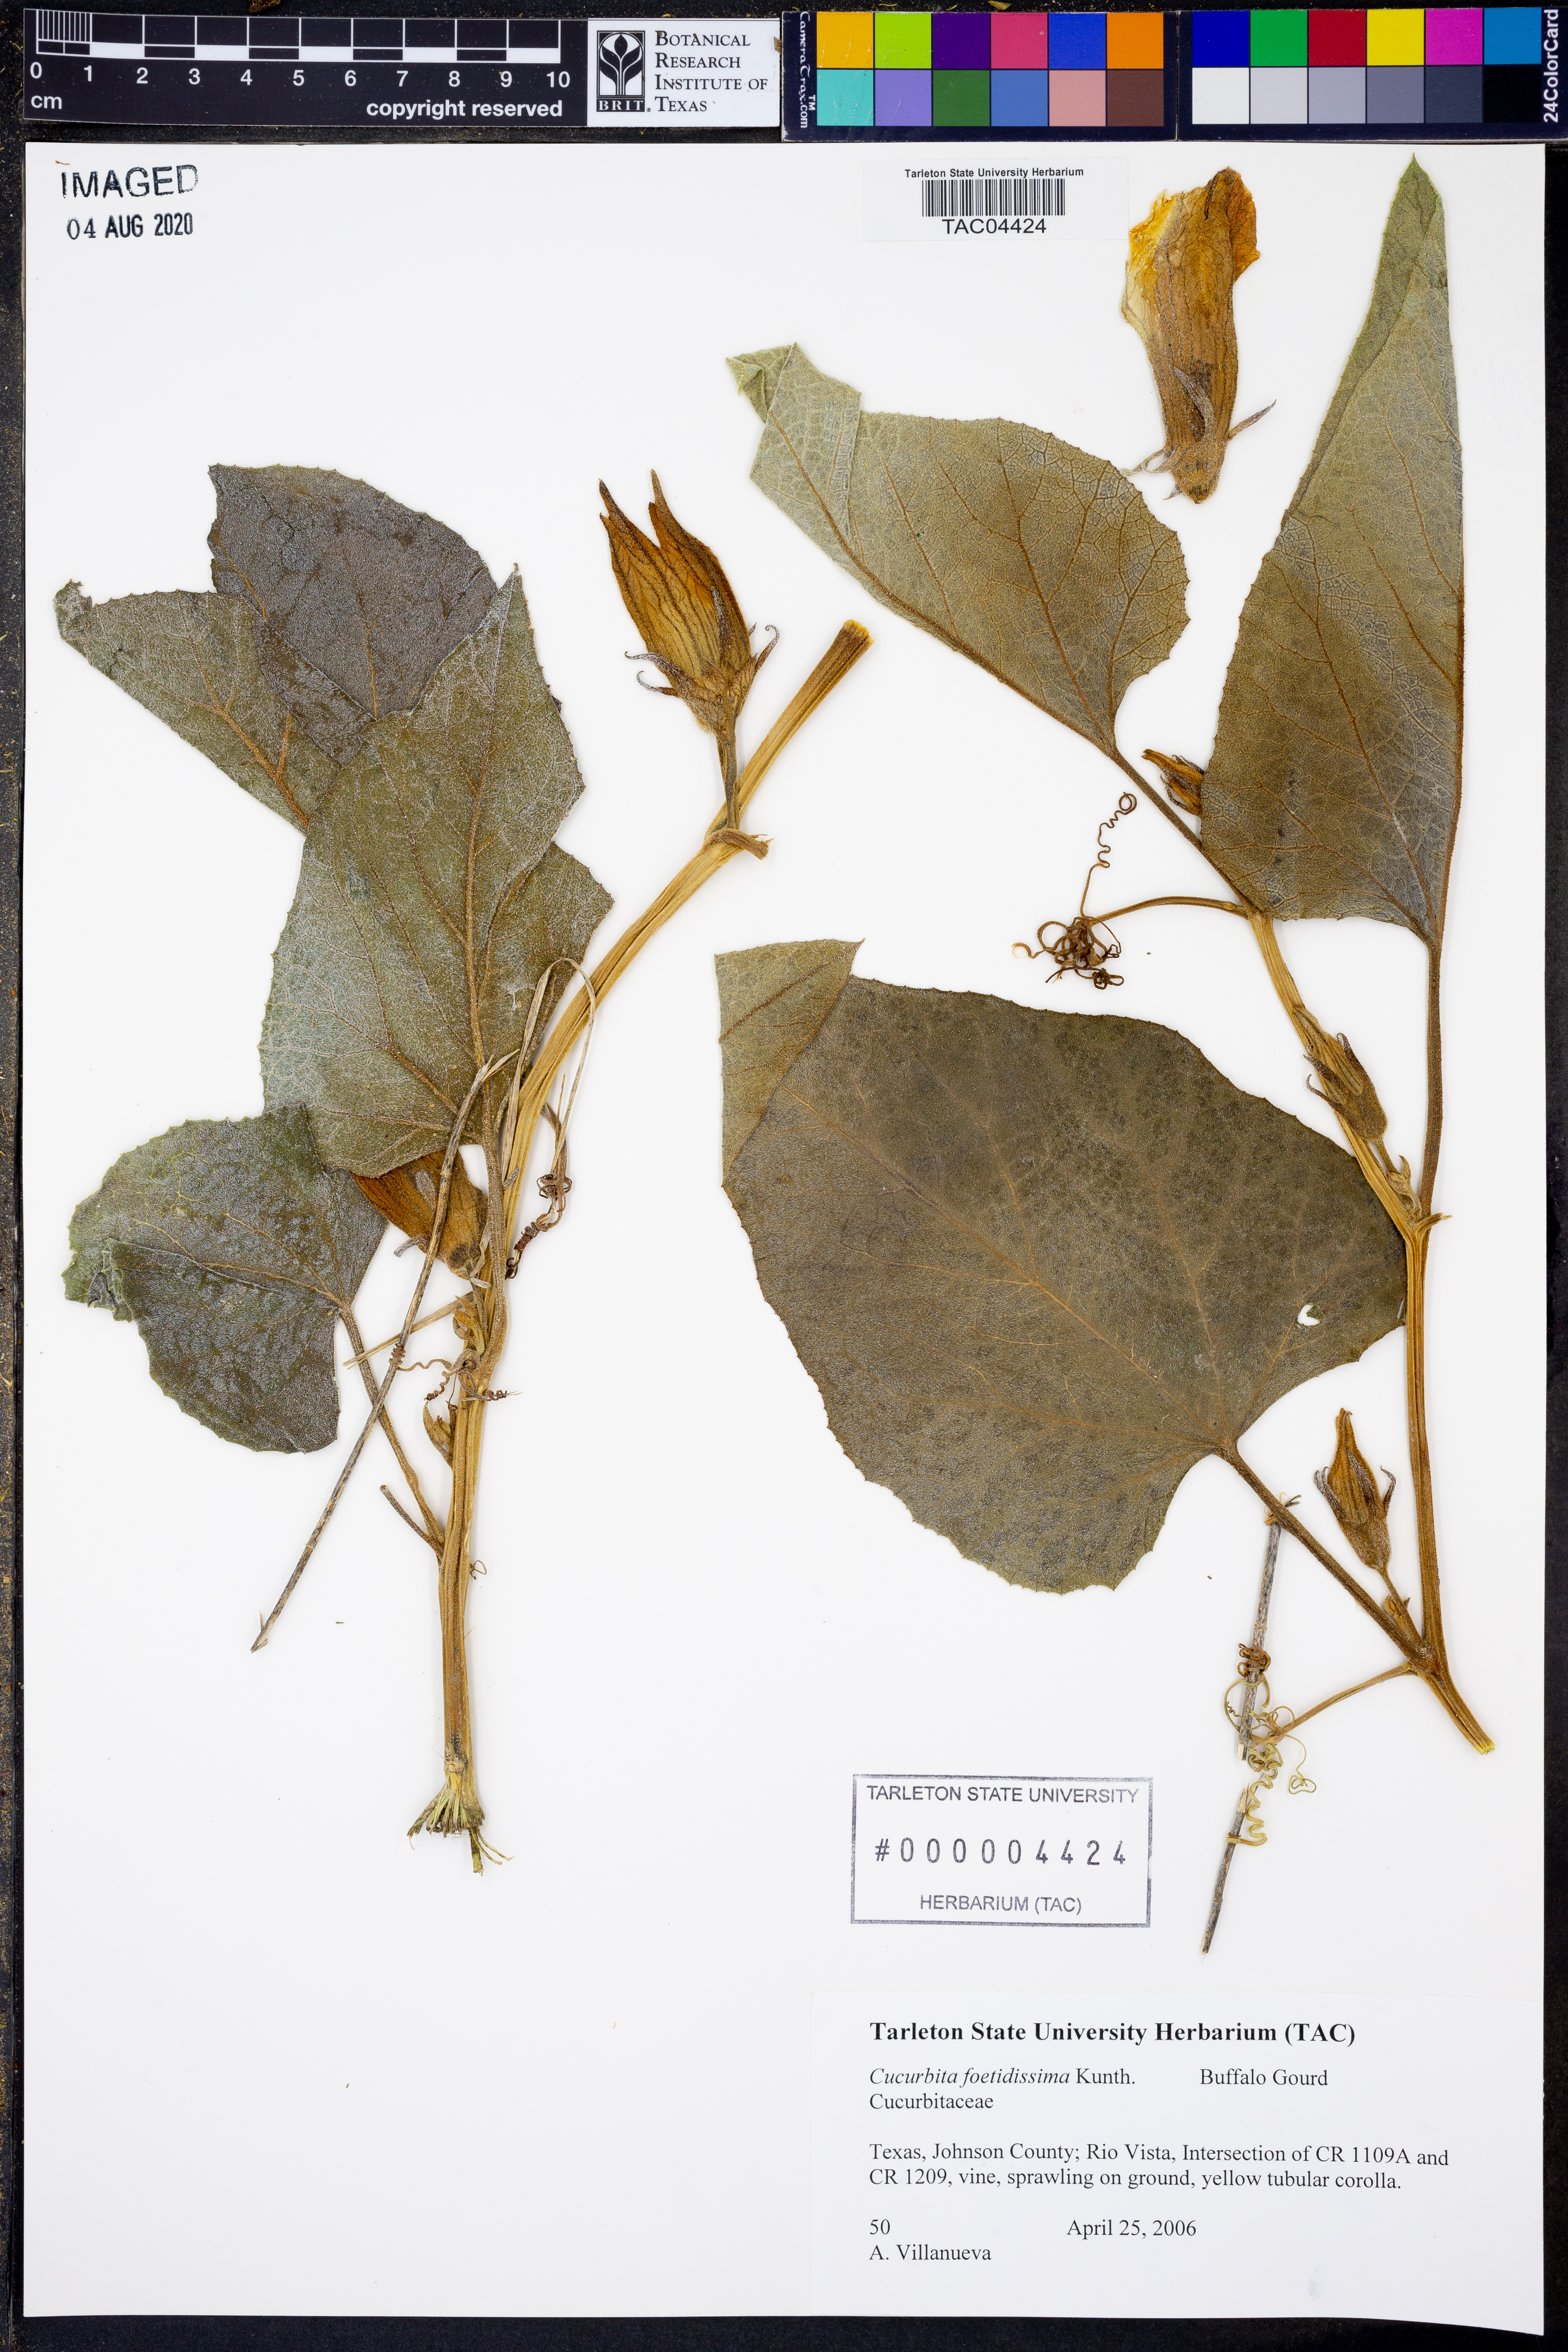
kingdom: Plantae
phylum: Tracheophyta
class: Magnoliopsida
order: Cucurbitales
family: Cucurbitaceae
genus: Cucurbita
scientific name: Cucurbita foetidissima
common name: Buffalo gourd
